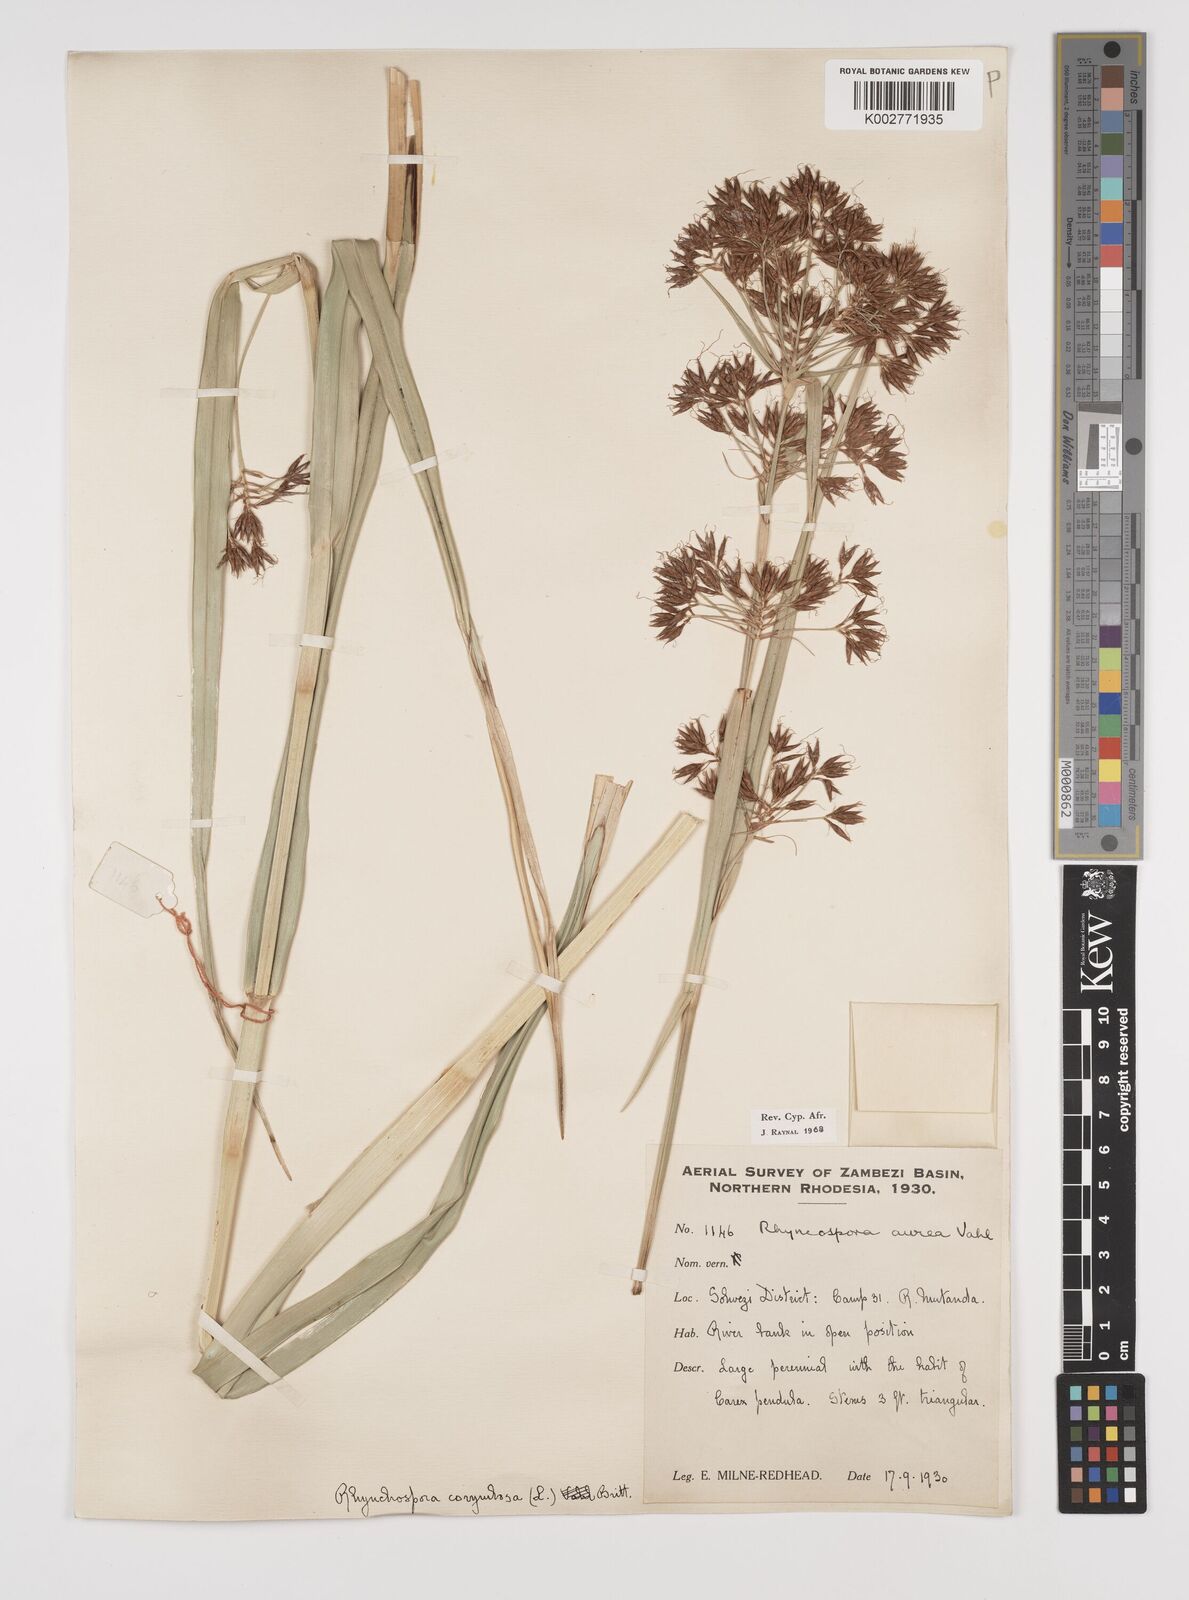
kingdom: Plantae
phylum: Tracheophyta
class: Liliopsida
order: Poales
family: Cyperaceae
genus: Rhynchospora
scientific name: Rhynchospora corymbosa
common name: Golden beak sedge
